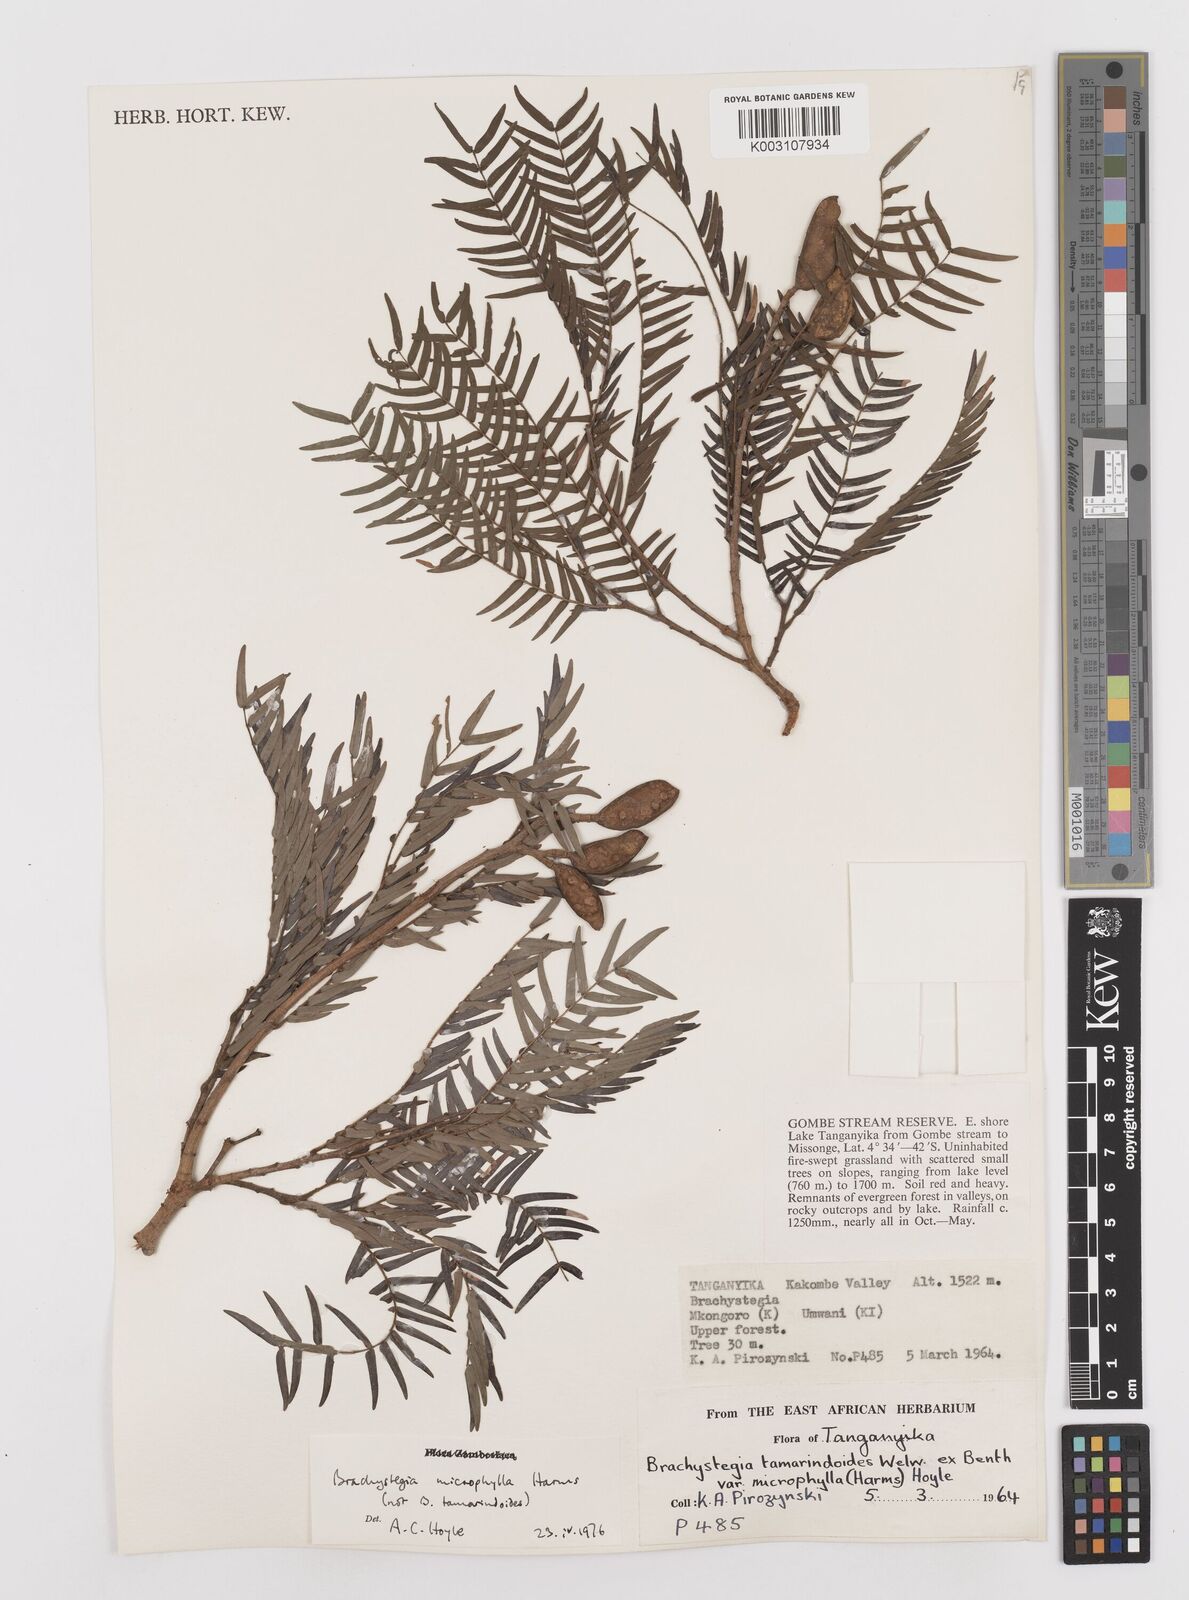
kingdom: Plantae
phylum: Tracheophyta
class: Magnoliopsida
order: Fabales
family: Fabaceae
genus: Brachystegia
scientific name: Brachystegia
